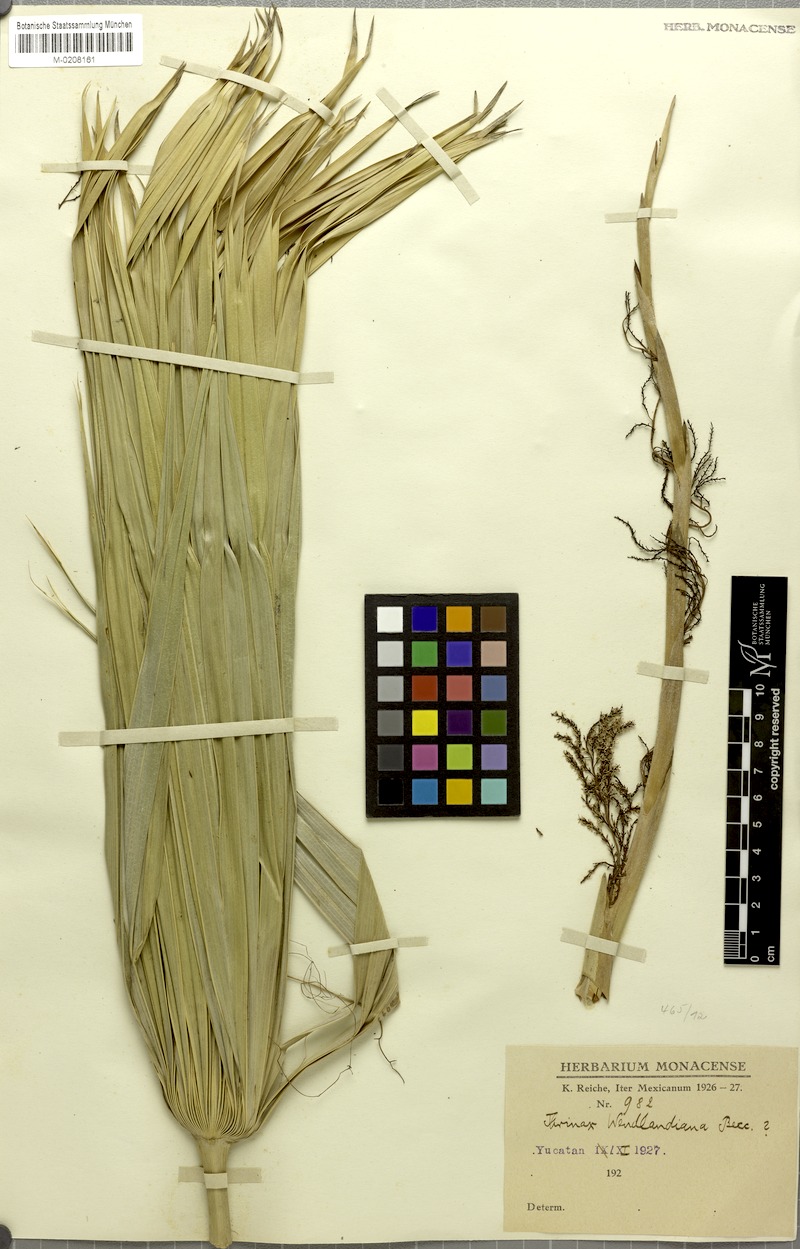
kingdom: Plantae
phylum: Tracheophyta
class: Liliopsida
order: Arecales
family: Arecaceae
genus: Thrinax
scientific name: Thrinax radiata
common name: Florida thatch
